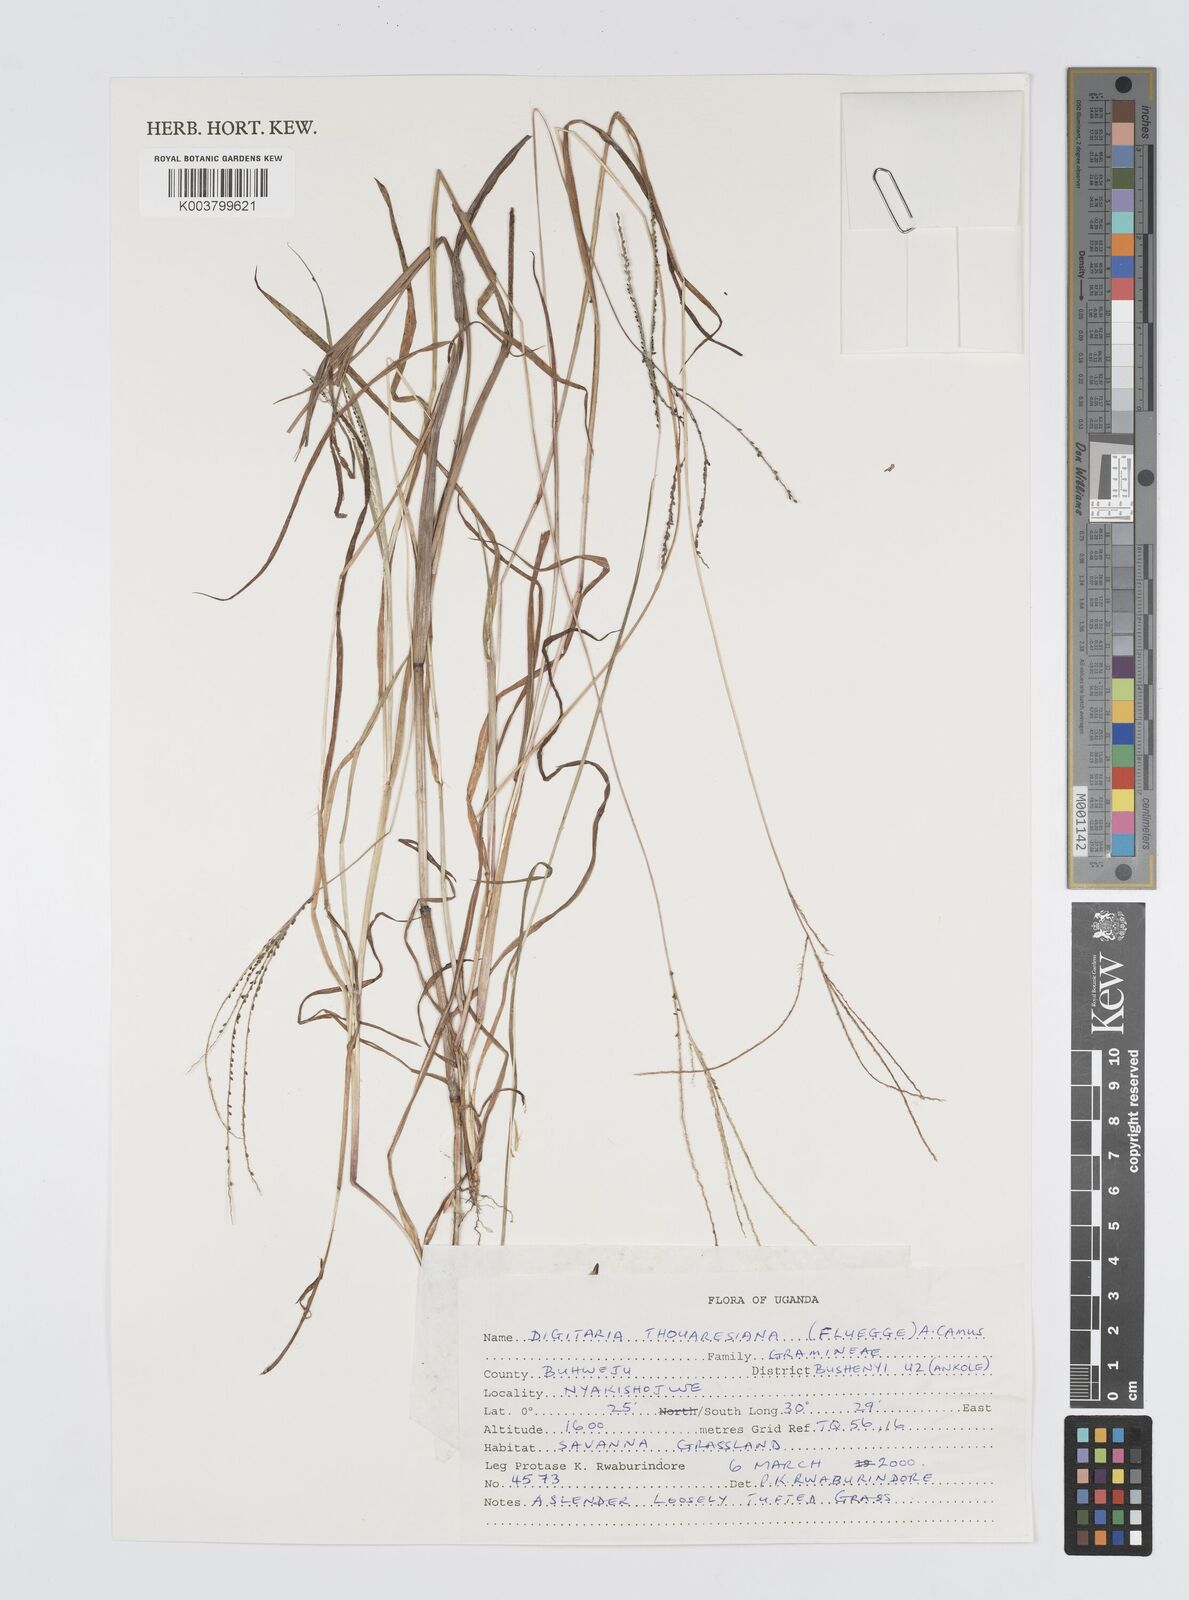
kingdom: Plantae
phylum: Tracheophyta
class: Liliopsida
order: Poales
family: Poaceae
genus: Digitaria
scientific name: Digitaria thouarsiana
